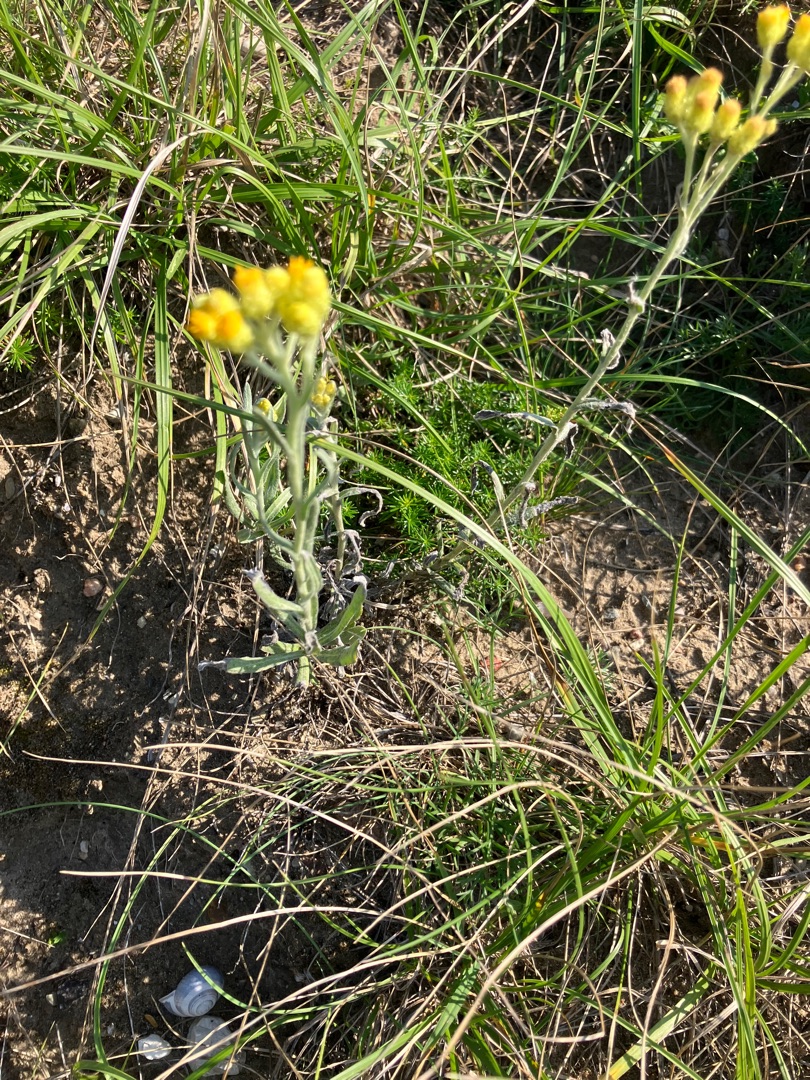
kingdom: Plantae
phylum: Tracheophyta
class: Magnoliopsida
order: Asterales
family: Asteraceae
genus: Helichrysum
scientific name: Helichrysum arenarium
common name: Gul evighedsblomst
